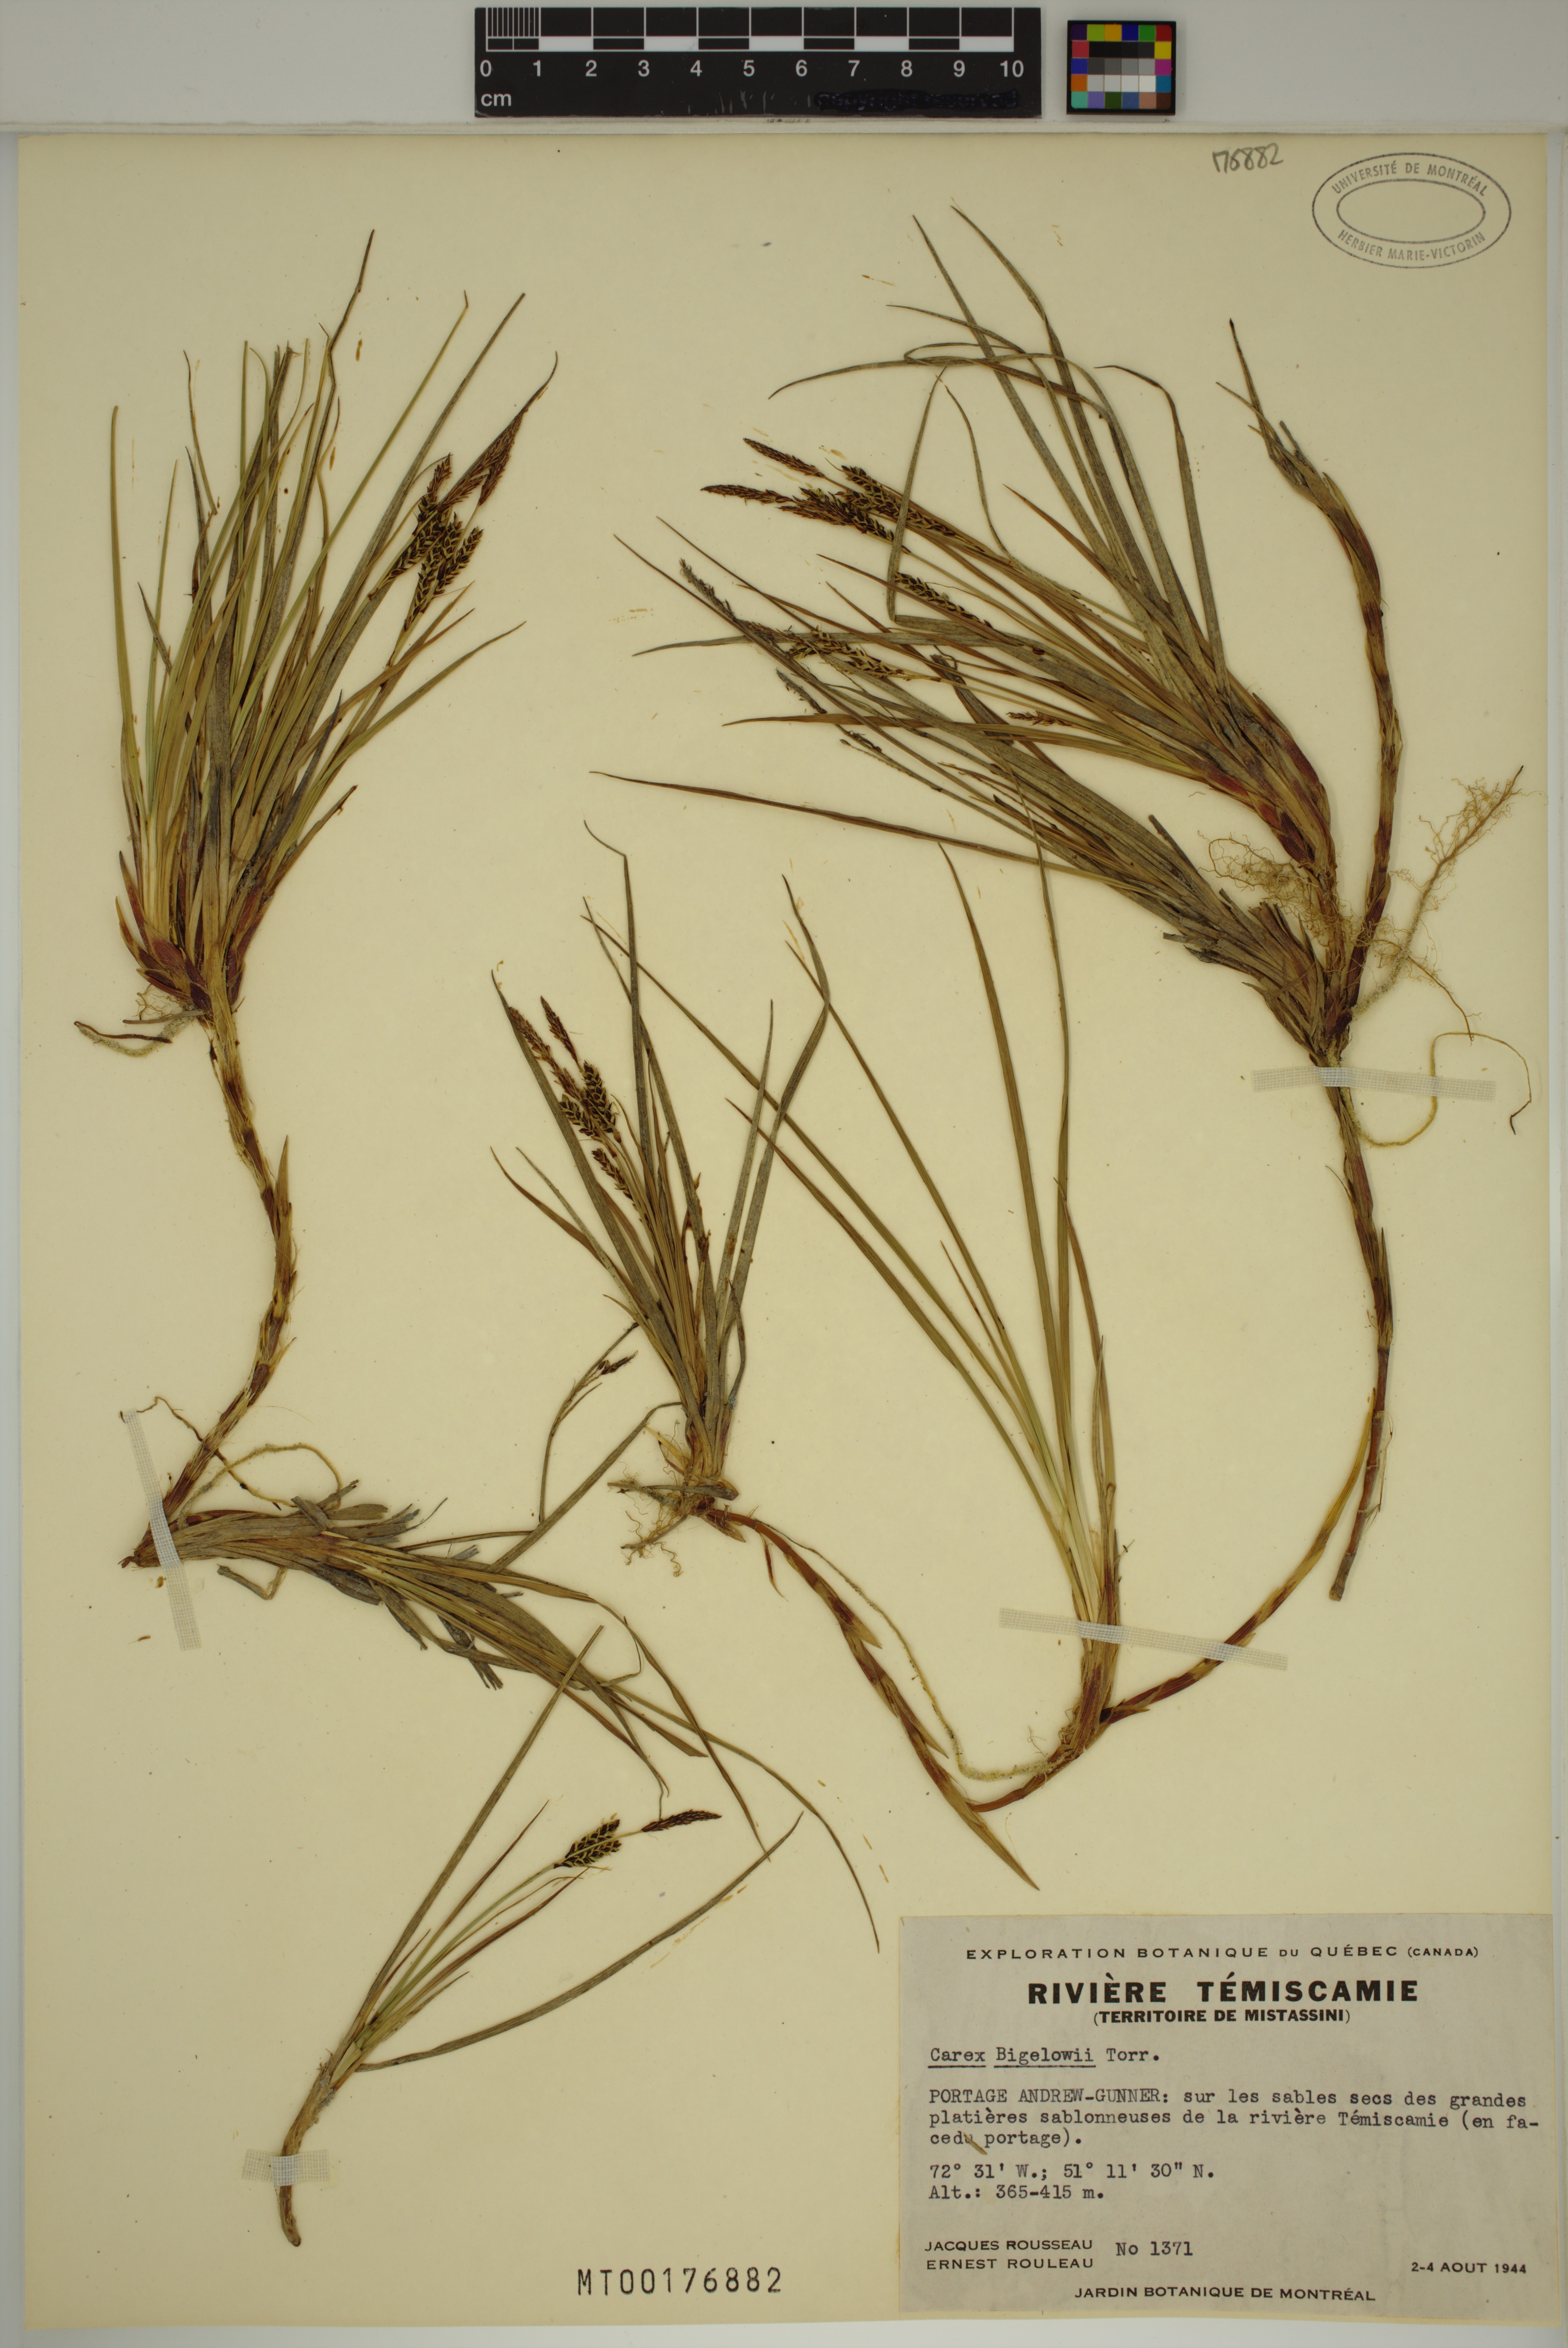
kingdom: Plantae
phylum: Tracheophyta
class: Liliopsida
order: Poales
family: Cyperaceae
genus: Carex
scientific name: Carex bigelowii
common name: Stiff sedge
